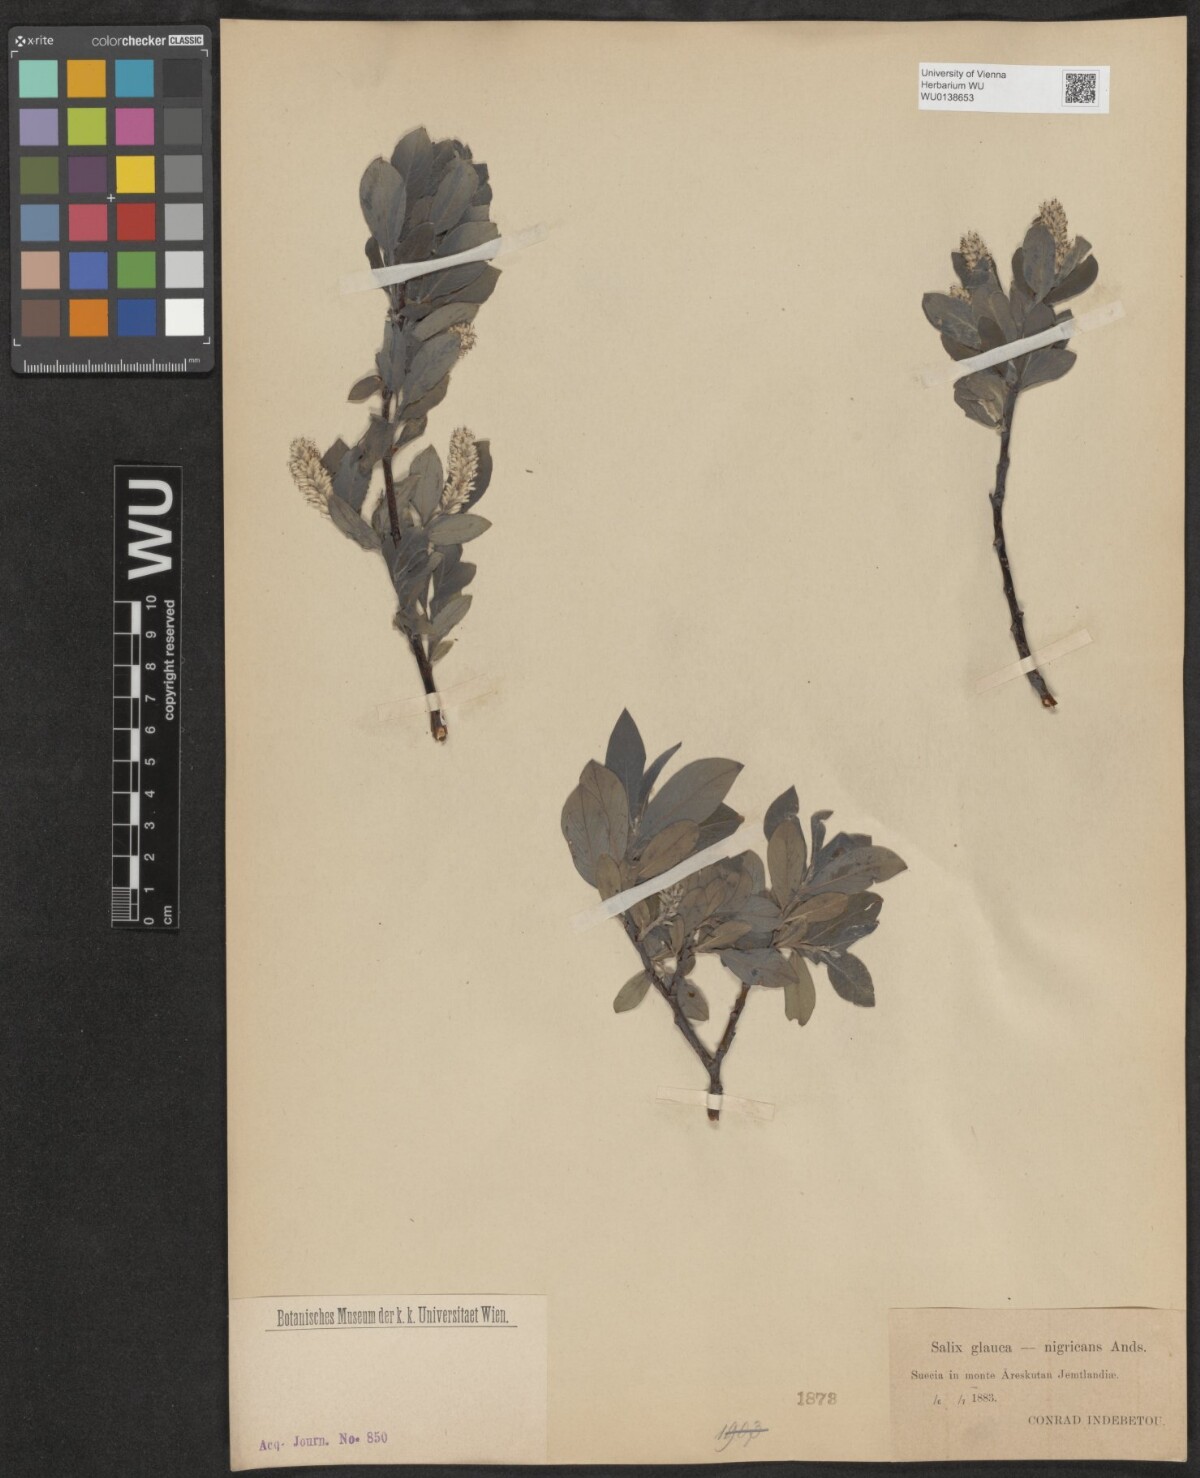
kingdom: Plantae
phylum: Tracheophyta
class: Magnoliopsida
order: Malpighiales
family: Salicaceae
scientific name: Salicaceae
